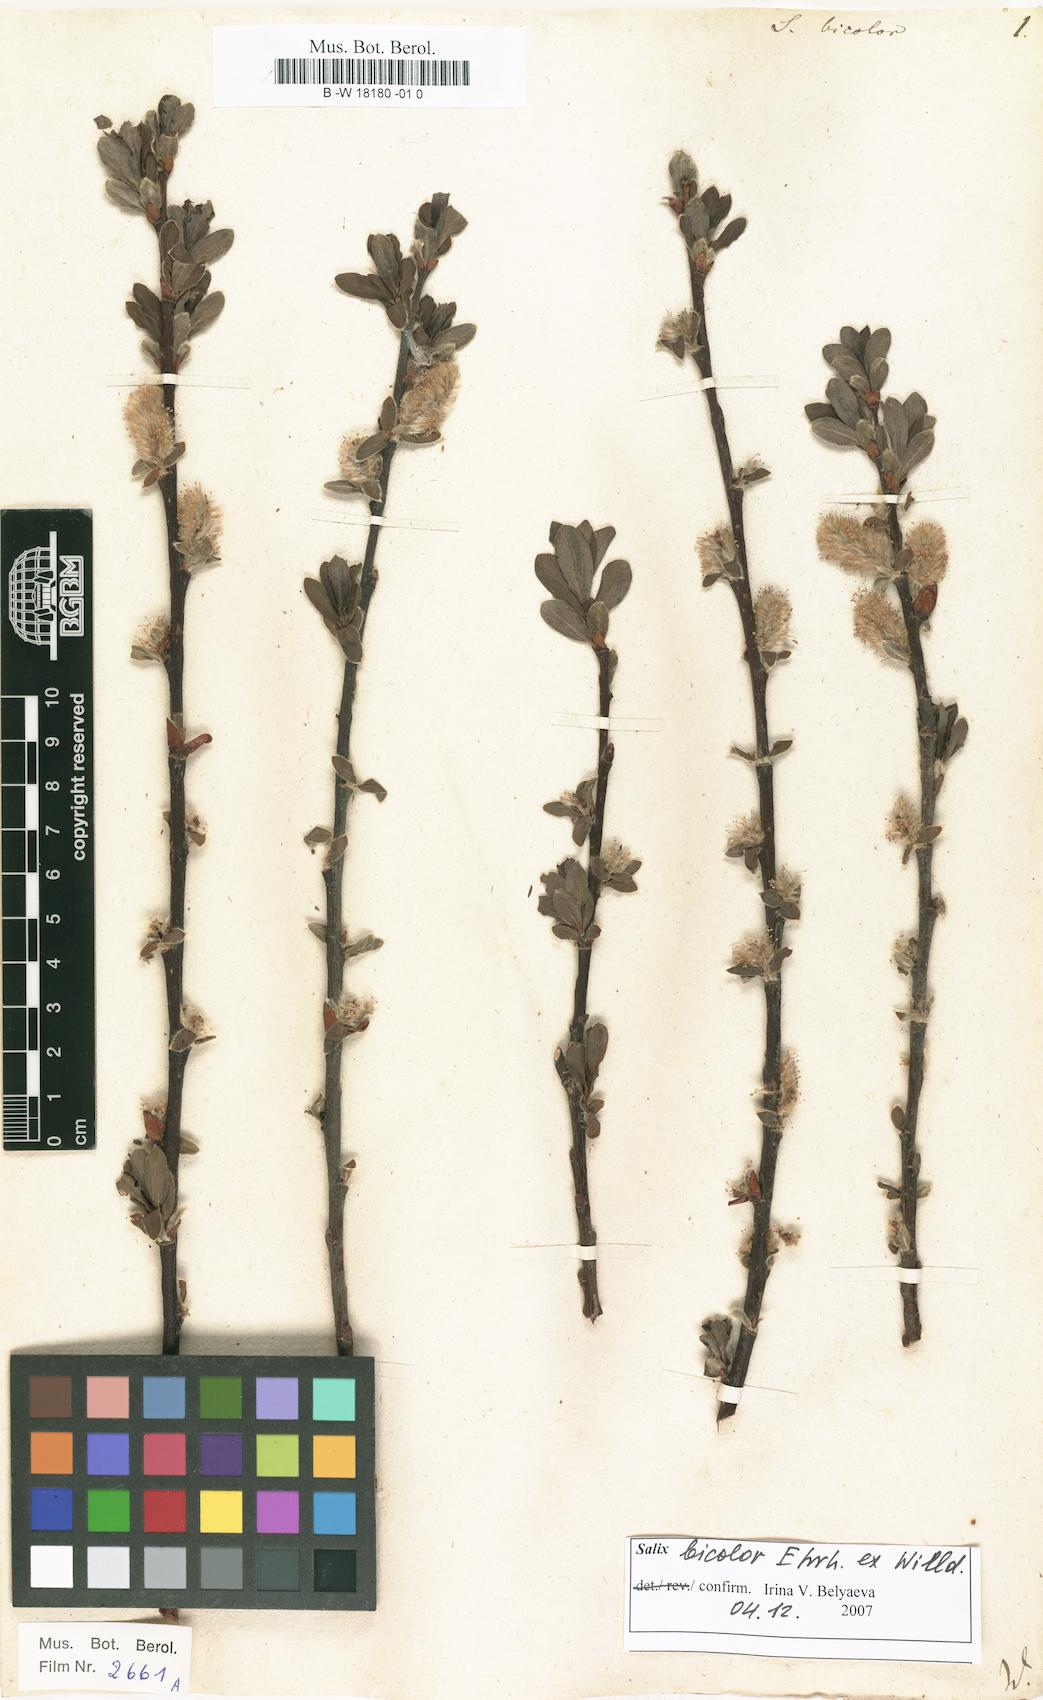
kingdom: Plantae
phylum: Tracheophyta
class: Magnoliopsida
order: Malpighiales
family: Salicaceae
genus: Salix
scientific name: Salix bicolor
